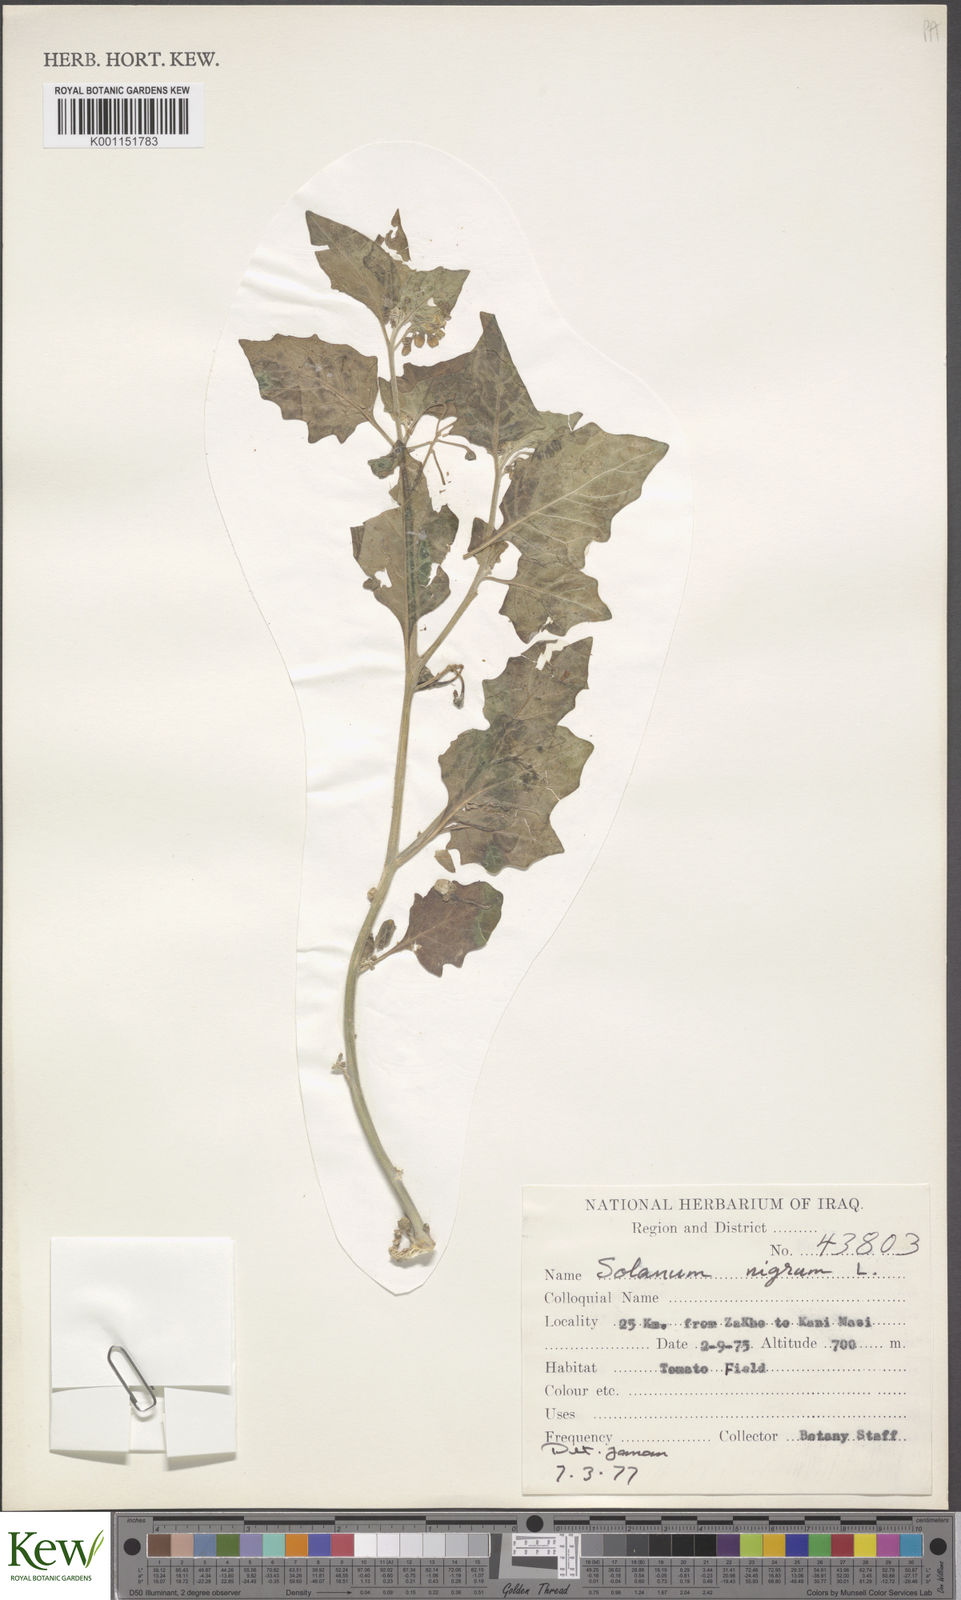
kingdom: Plantae
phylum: Tracheophyta
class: Magnoliopsida
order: Solanales
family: Solanaceae
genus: Solanum
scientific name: Solanum nigrum
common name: Black nightshade
